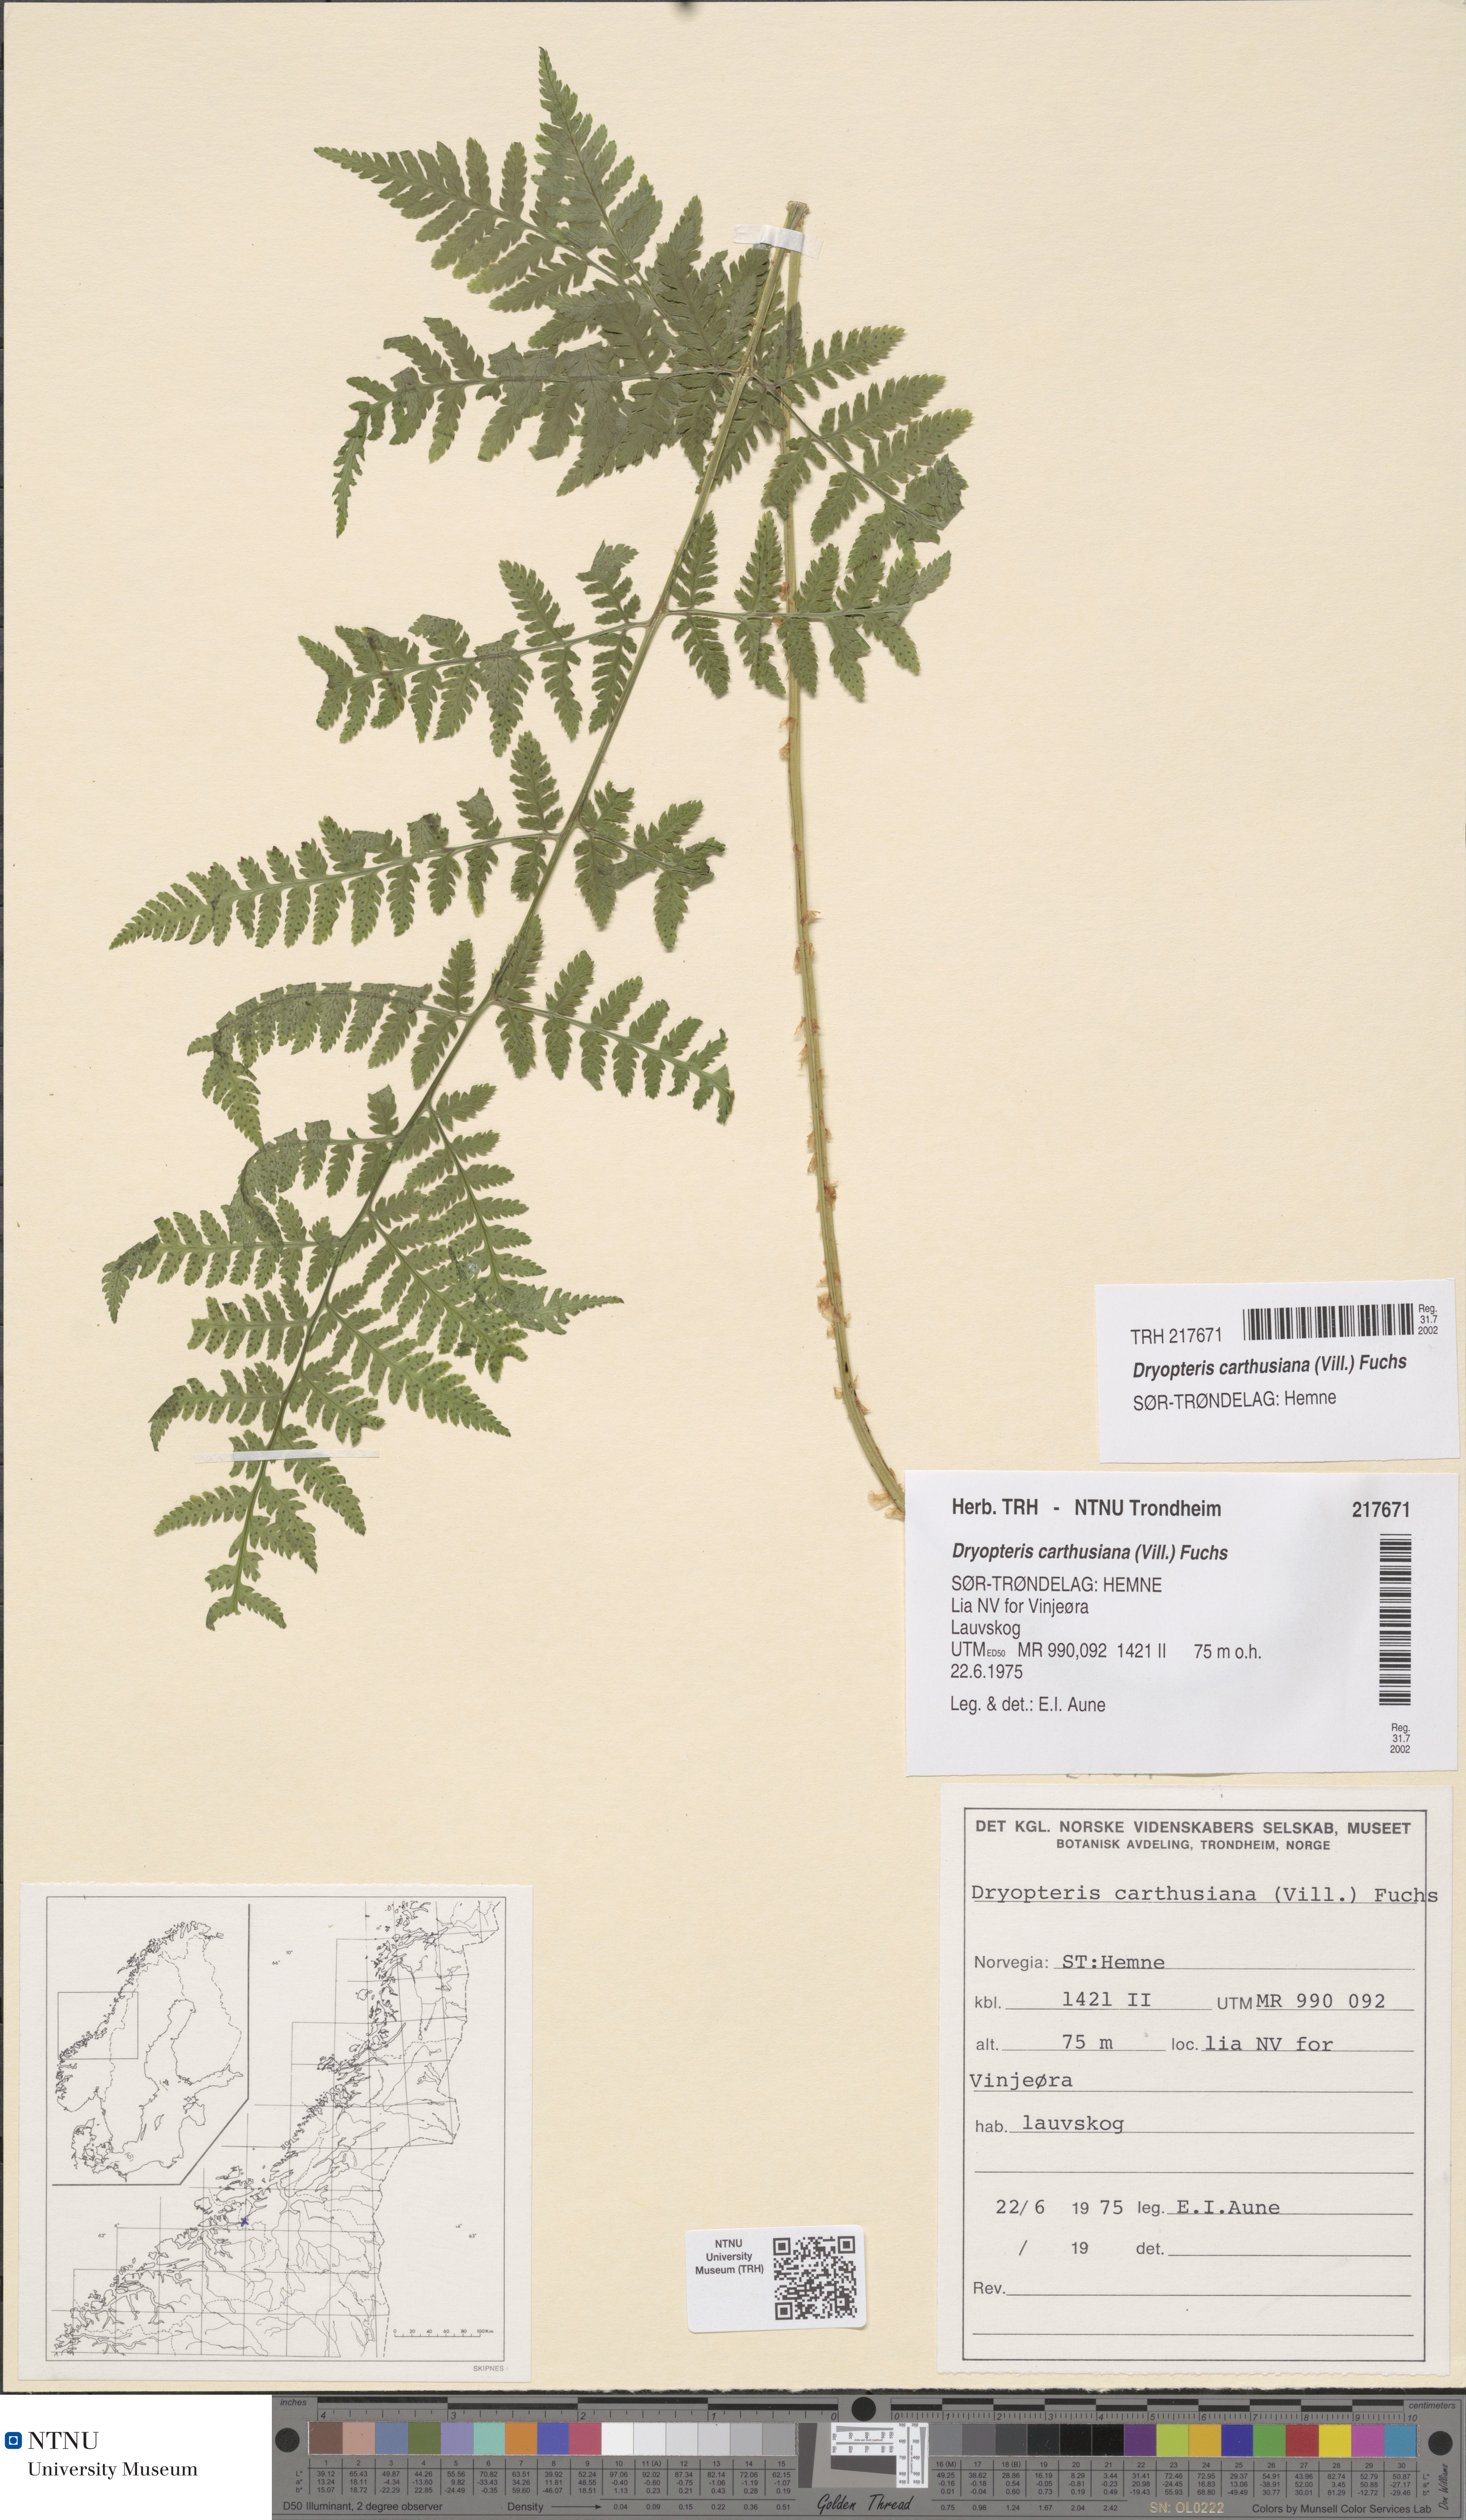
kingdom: Plantae
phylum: Tracheophyta
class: Polypodiopsida
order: Polypodiales
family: Dryopteridaceae
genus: Dryopteris
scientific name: Dryopteris carthusiana
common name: Narrow buckler-fern
